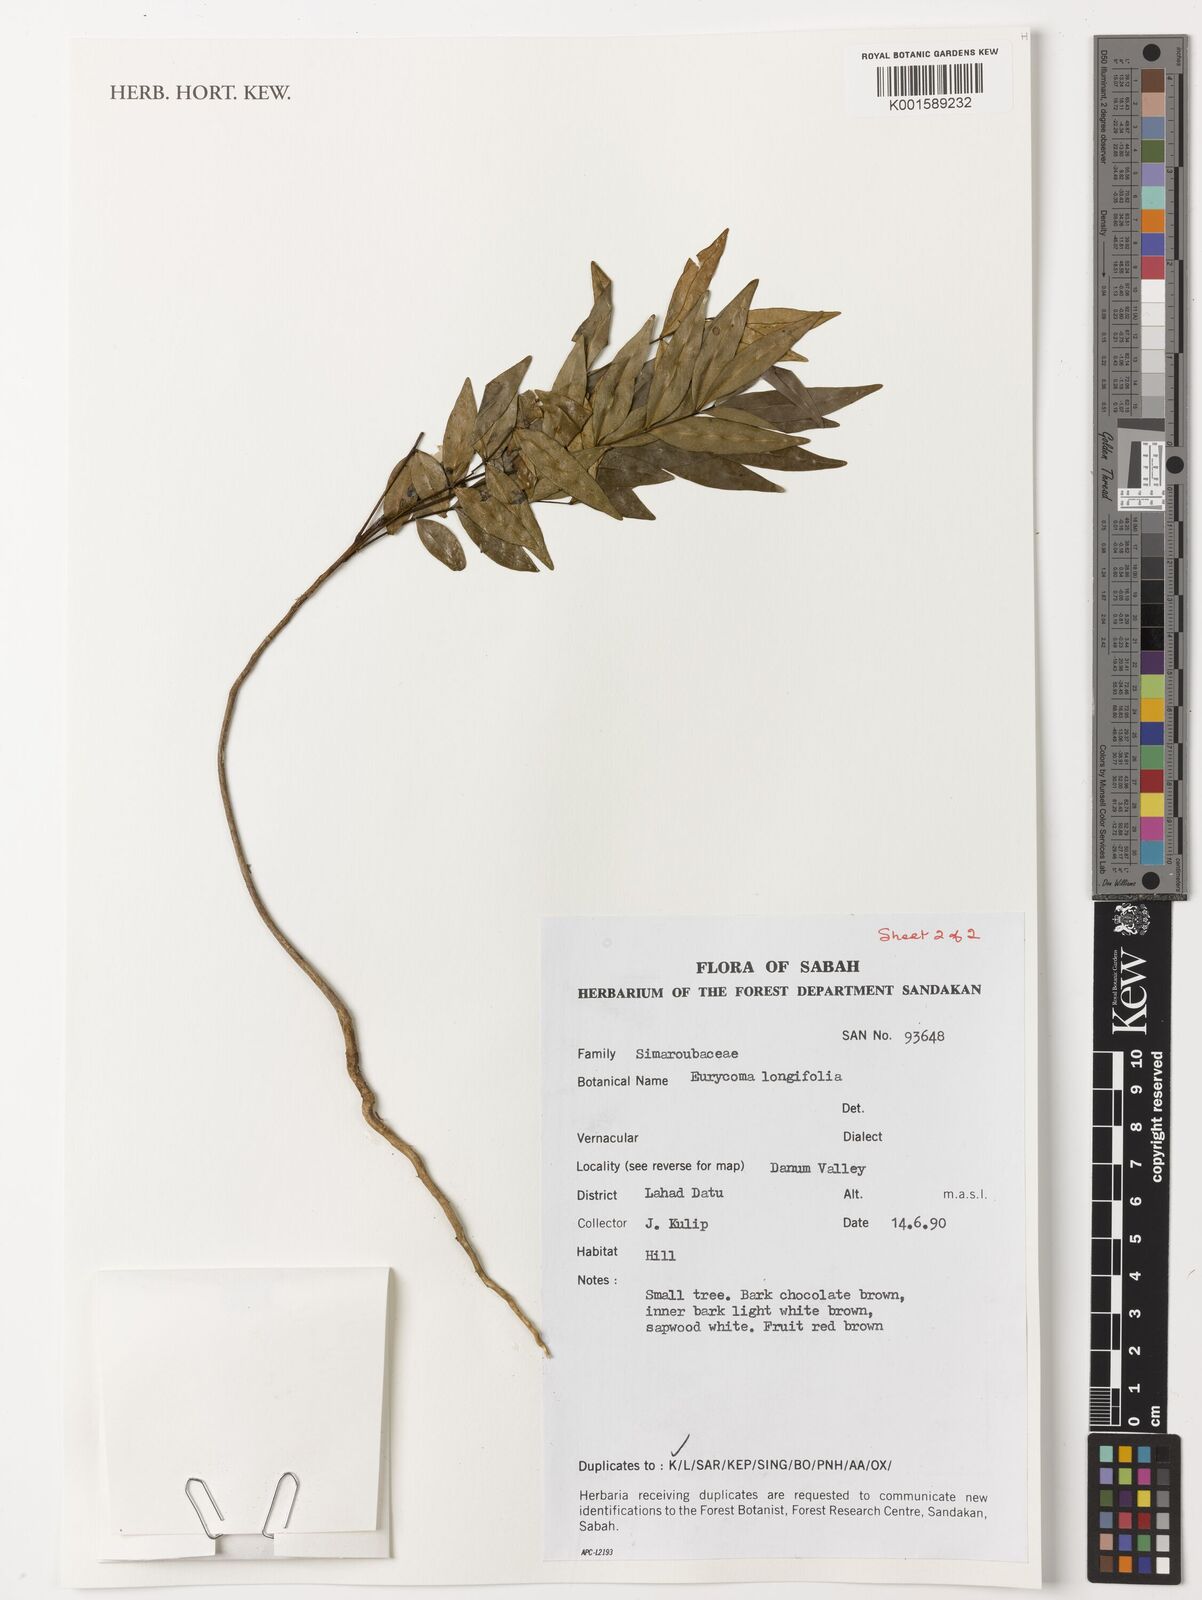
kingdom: Plantae
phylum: Tracheophyta
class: Magnoliopsida
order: Sapindales
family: Simaroubaceae
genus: Eurycoma
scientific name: Eurycoma longifolia
